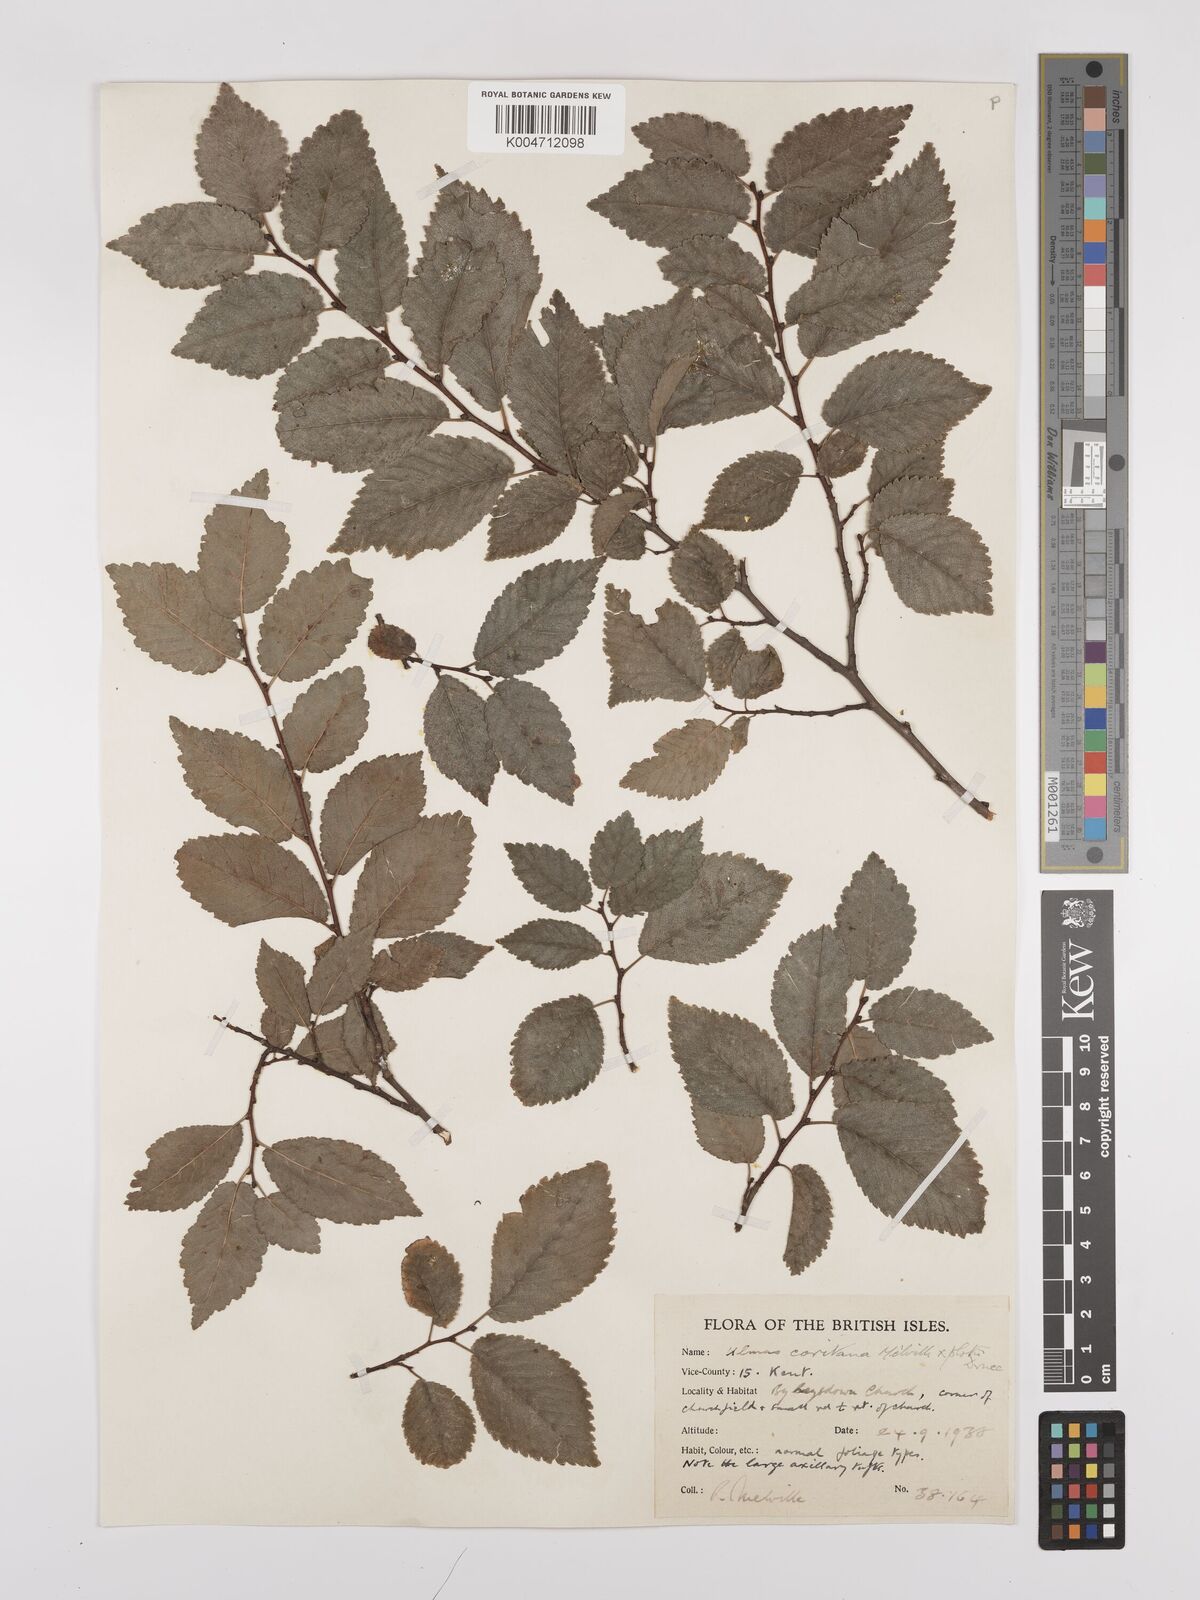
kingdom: Plantae
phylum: Tracheophyta
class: Magnoliopsida
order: Rosales
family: Ulmaceae
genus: Ulmus
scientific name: Ulmus minor
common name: Small-leaved elm
